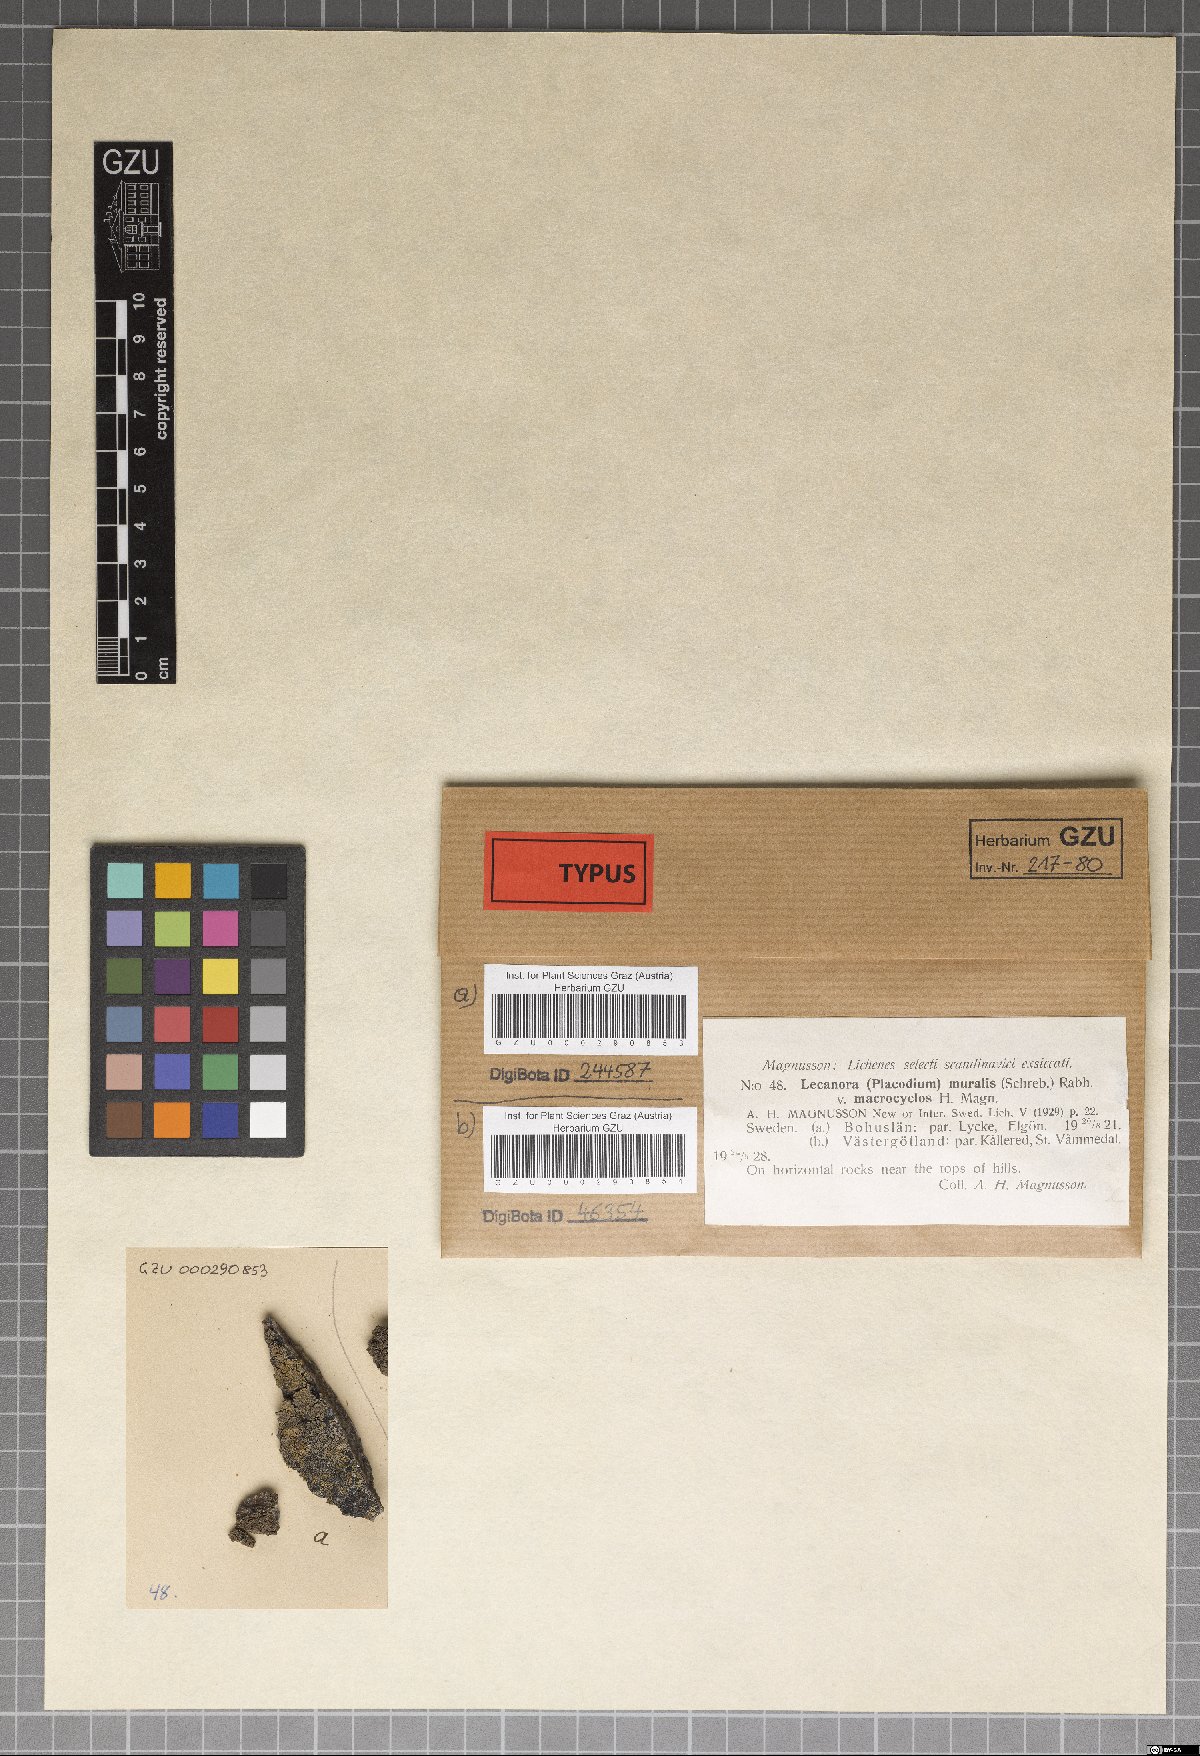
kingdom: Fungi
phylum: Ascomycota
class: Lecanoromycetes
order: Lecanorales
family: Lecanoraceae
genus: Protoparmeliopsis
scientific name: Protoparmeliopsis macrocyclos
